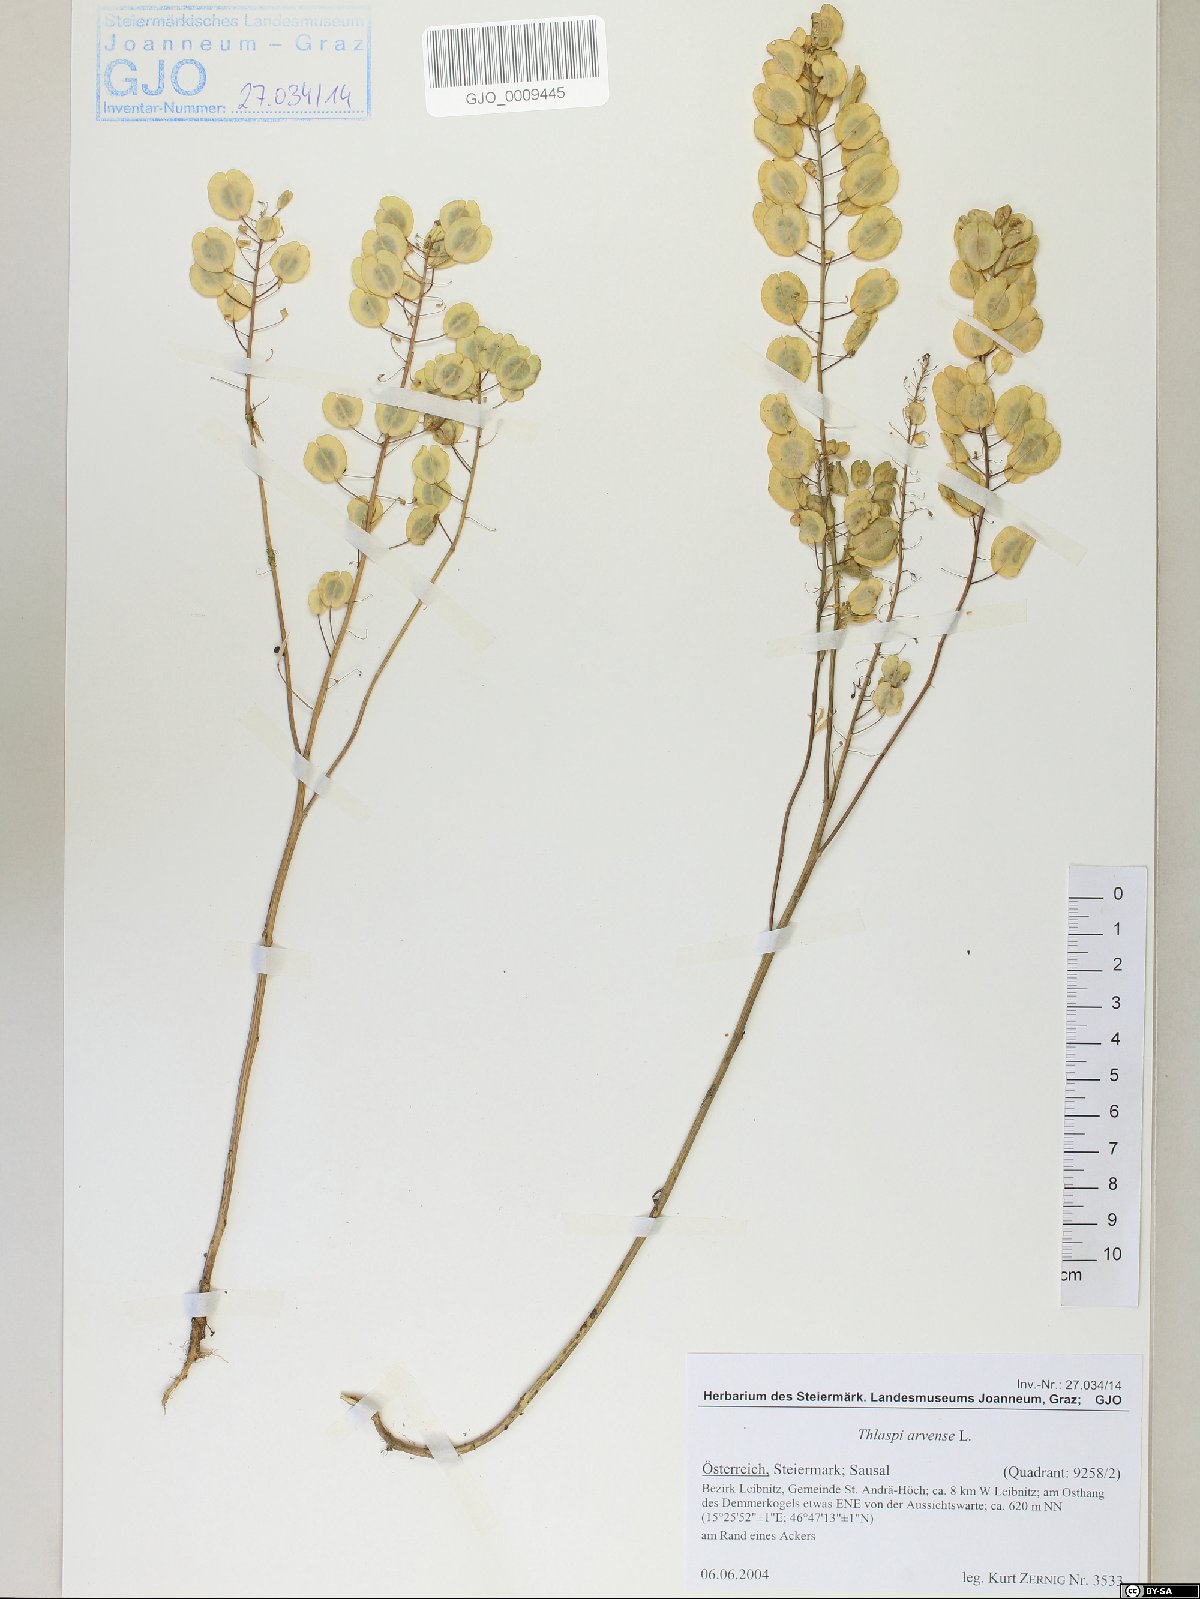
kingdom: Plantae
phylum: Tracheophyta
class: Magnoliopsida
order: Brassicales
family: Brassicaceae
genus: Thlaspi
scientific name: Thlaspi arvense
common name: Field pennycress
